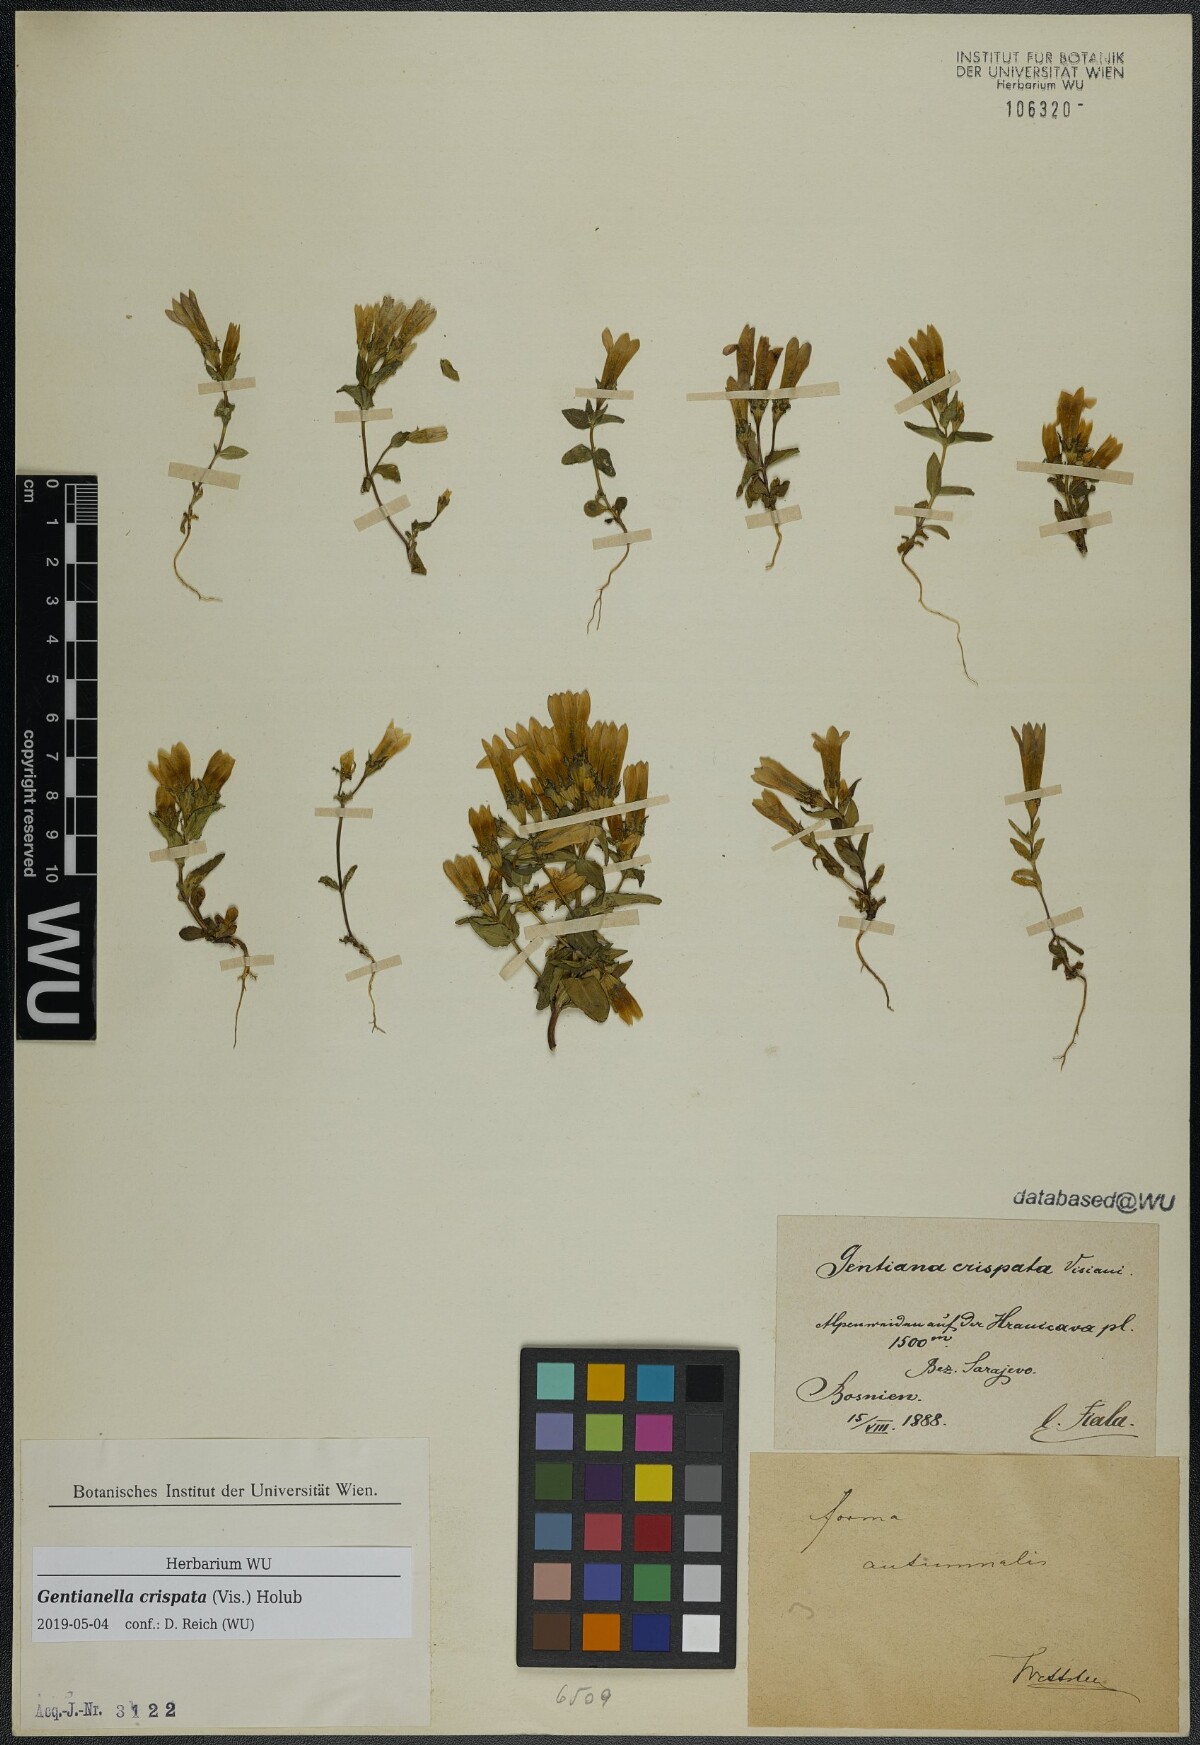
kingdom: Plantae
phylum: Tracheophyta
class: Magnoliopsida
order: Gentianales
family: Gentianaceae
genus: Gentianella
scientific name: Gentianella crispata
